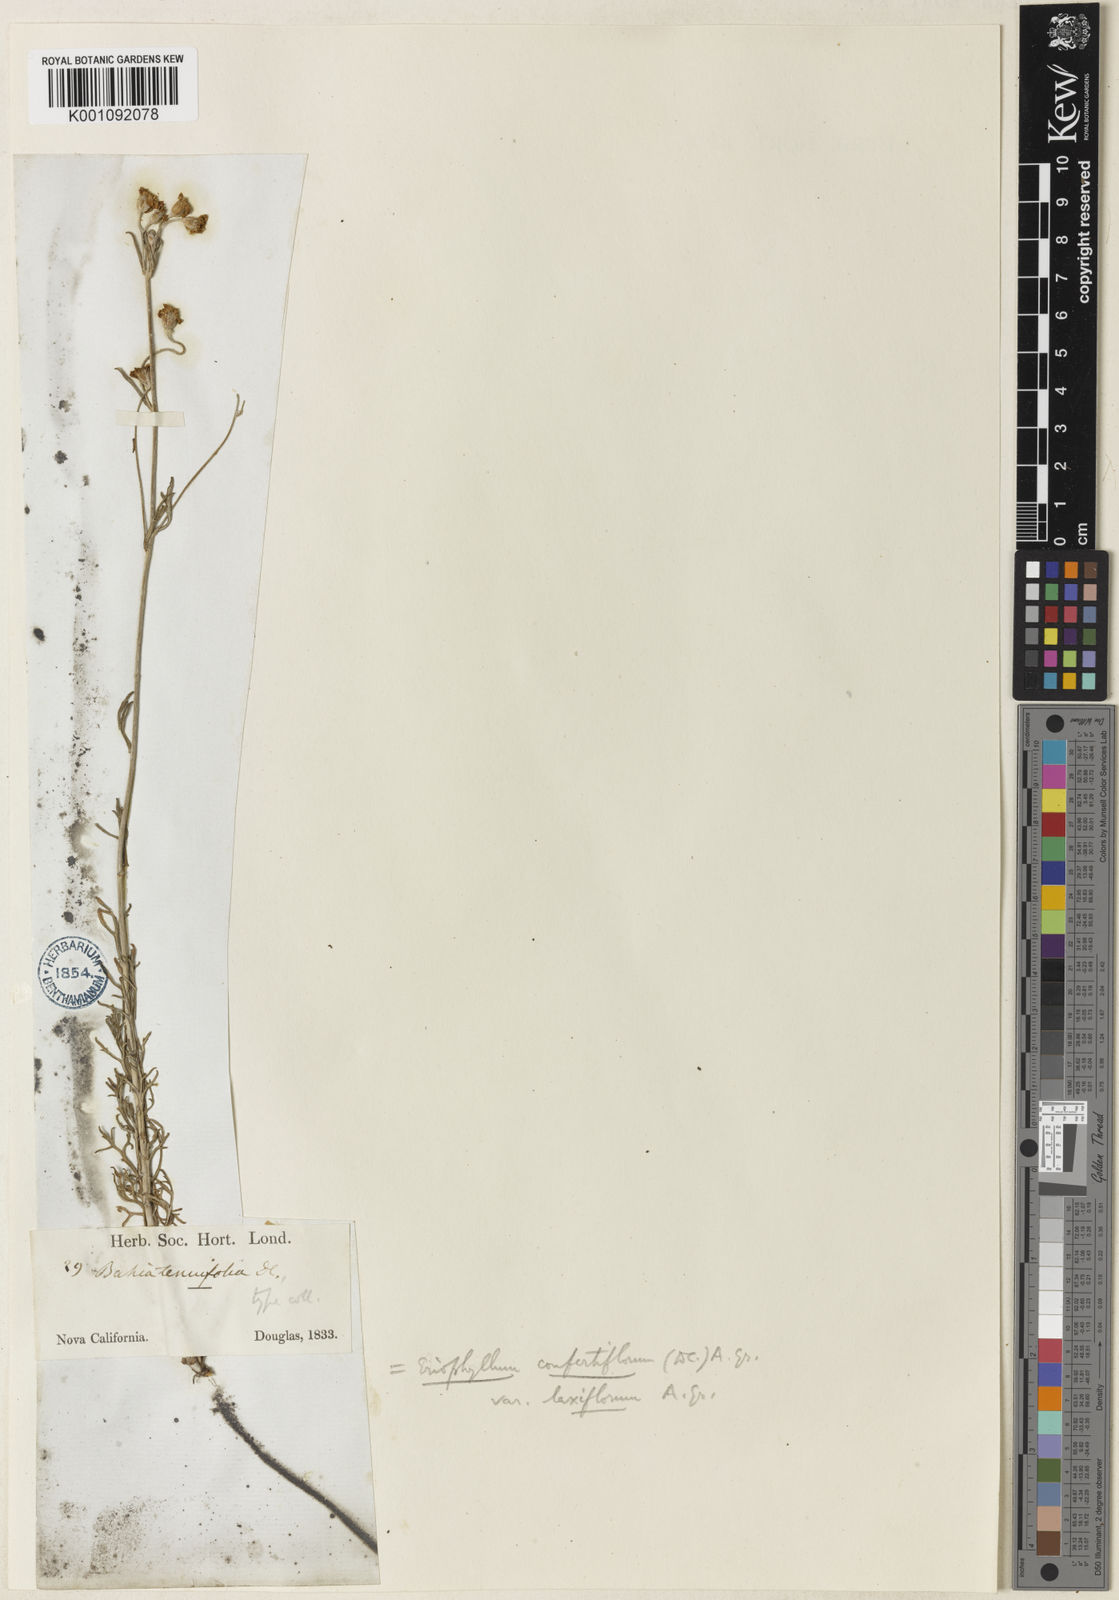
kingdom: Plantae
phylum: Tracheophyta
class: Magnoliopsida
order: Asterales
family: Asteraceae
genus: Eriophyllum
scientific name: Eriophyllum confertiflorum
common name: Golden-yarrow
